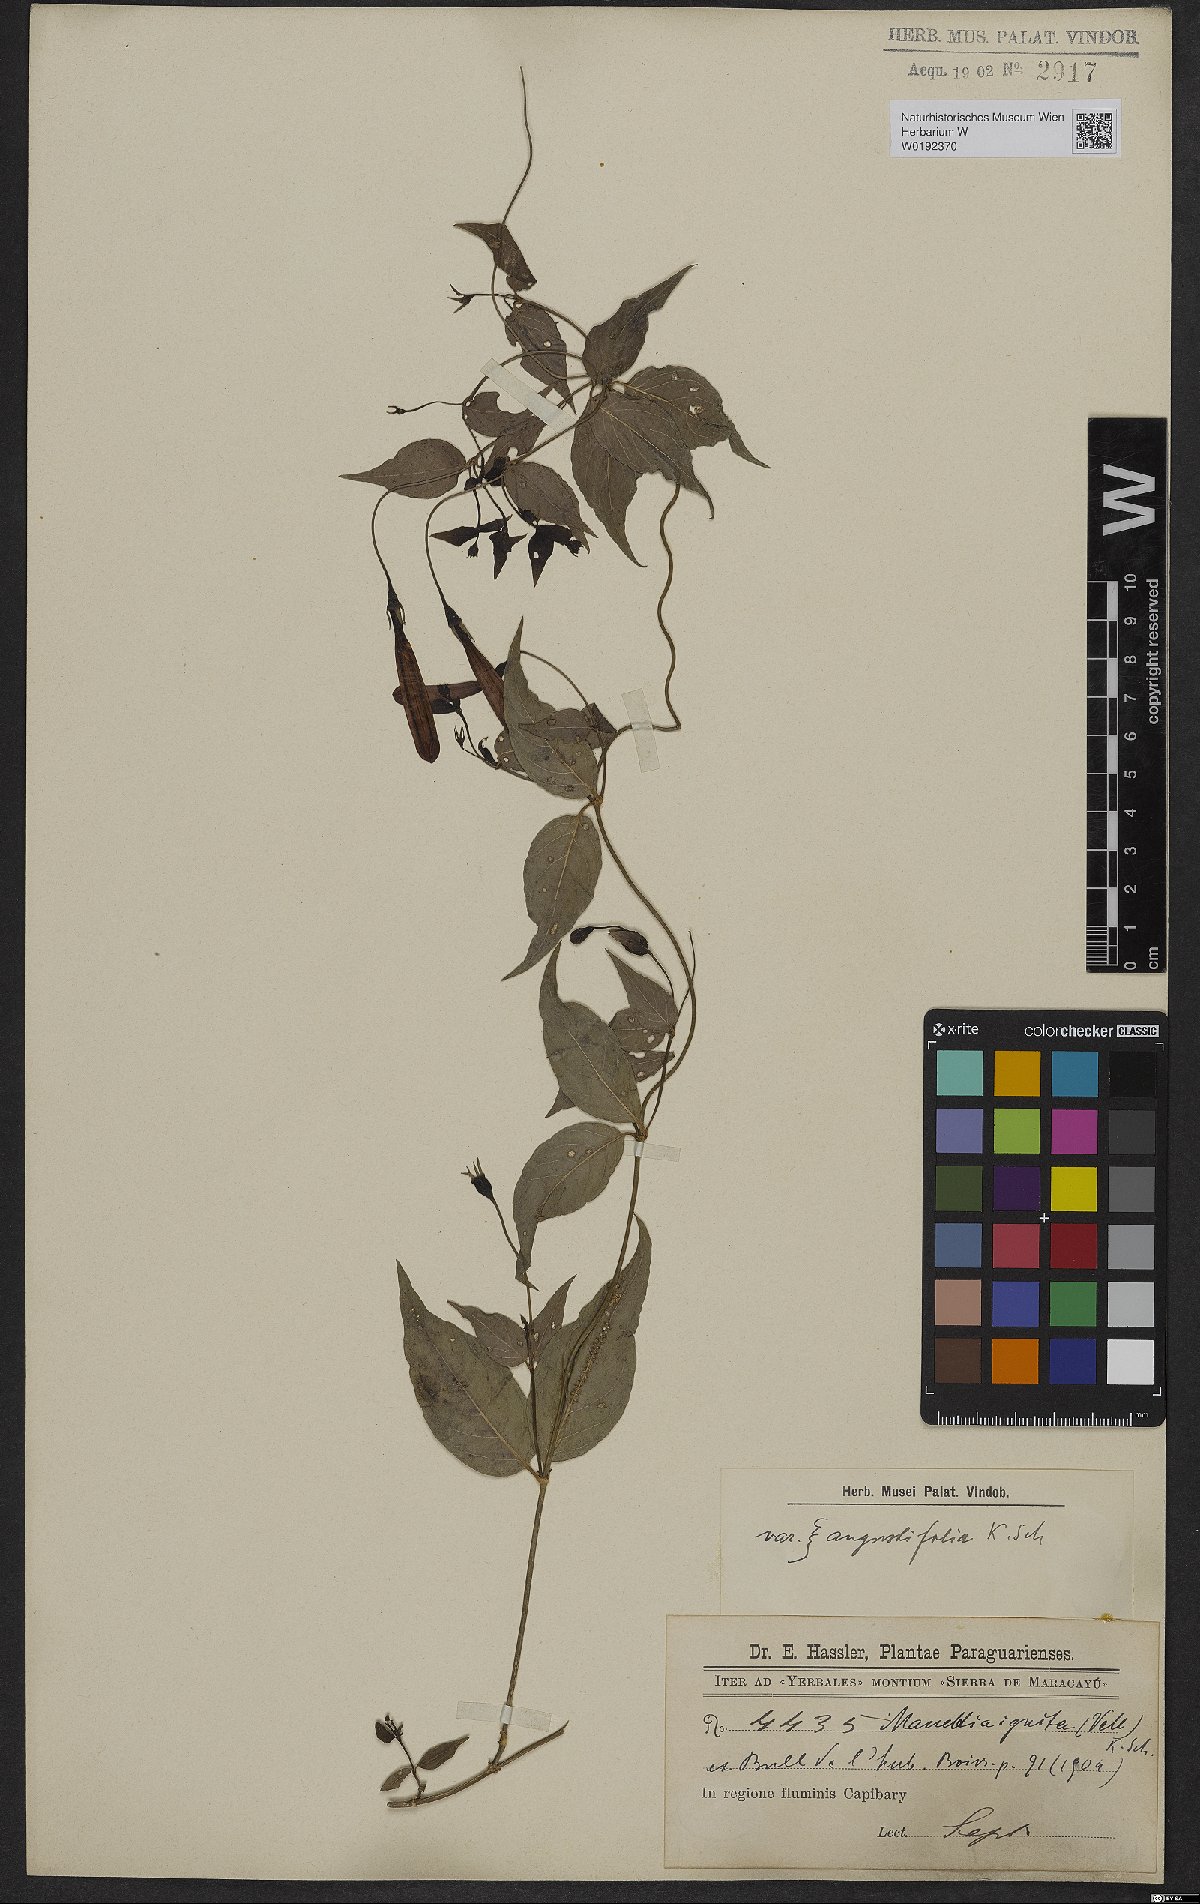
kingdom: Plantae
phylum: Tracheophyta
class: Magnoliopsida
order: Gentianales
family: Rubiaceae
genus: Manettia
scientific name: Manettia cordifolia
